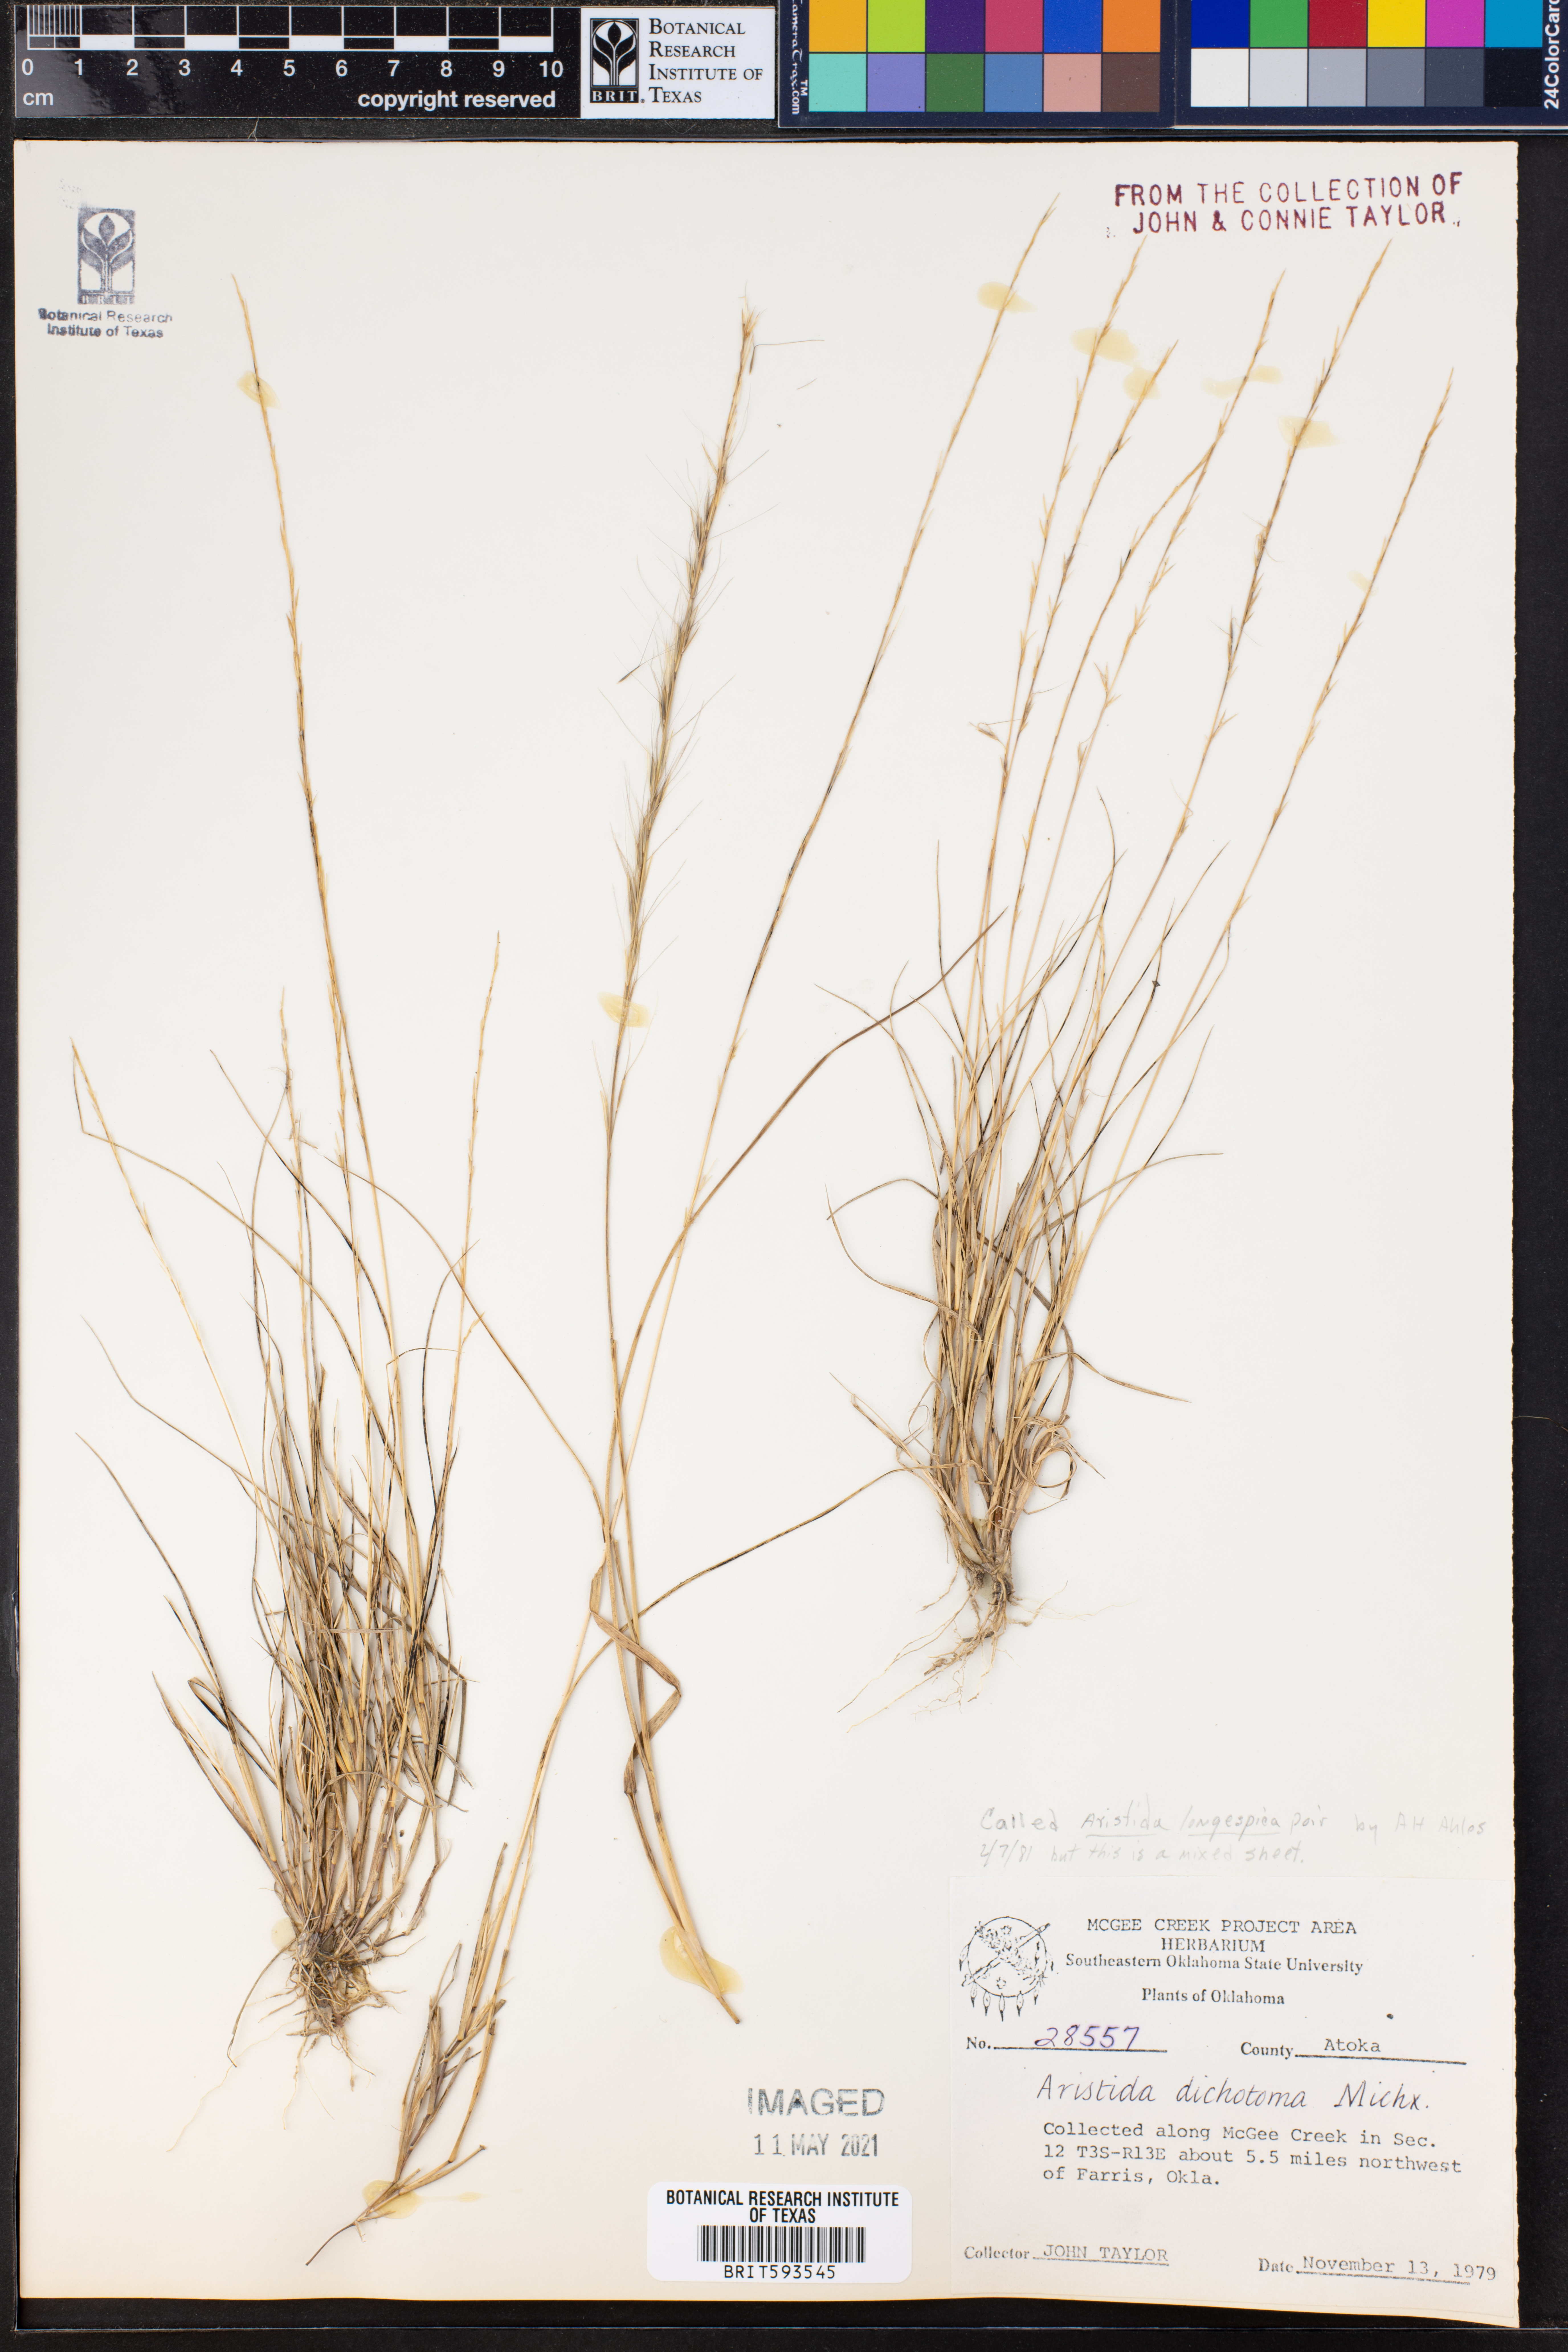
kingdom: Plantae
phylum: Tracheophyta
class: Liliopsida
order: Poales
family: Poaceae
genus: Aristida
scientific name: Aristida longespica
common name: Long-spiked triple-awned grass
